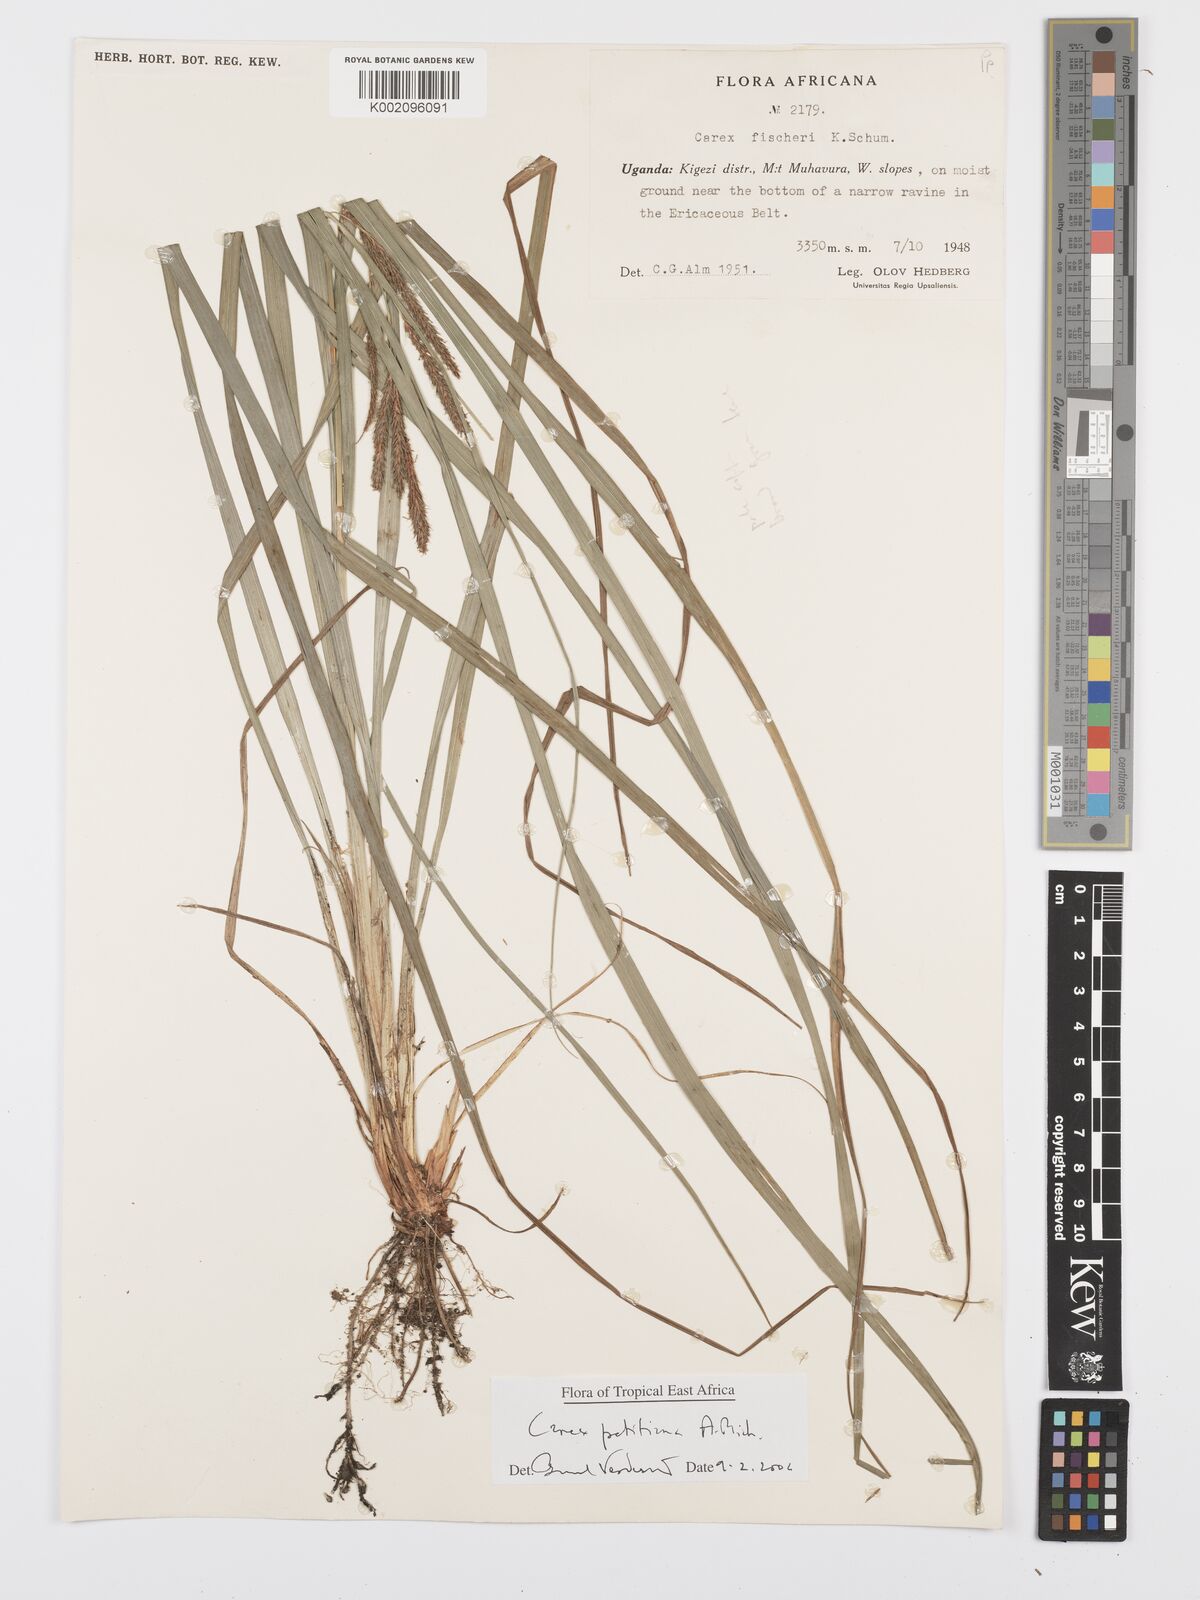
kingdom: Plantae
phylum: Tracheophyta
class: Liliopsida
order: Poales
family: Cyperaceae
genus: Carex
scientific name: Carex fischeri
